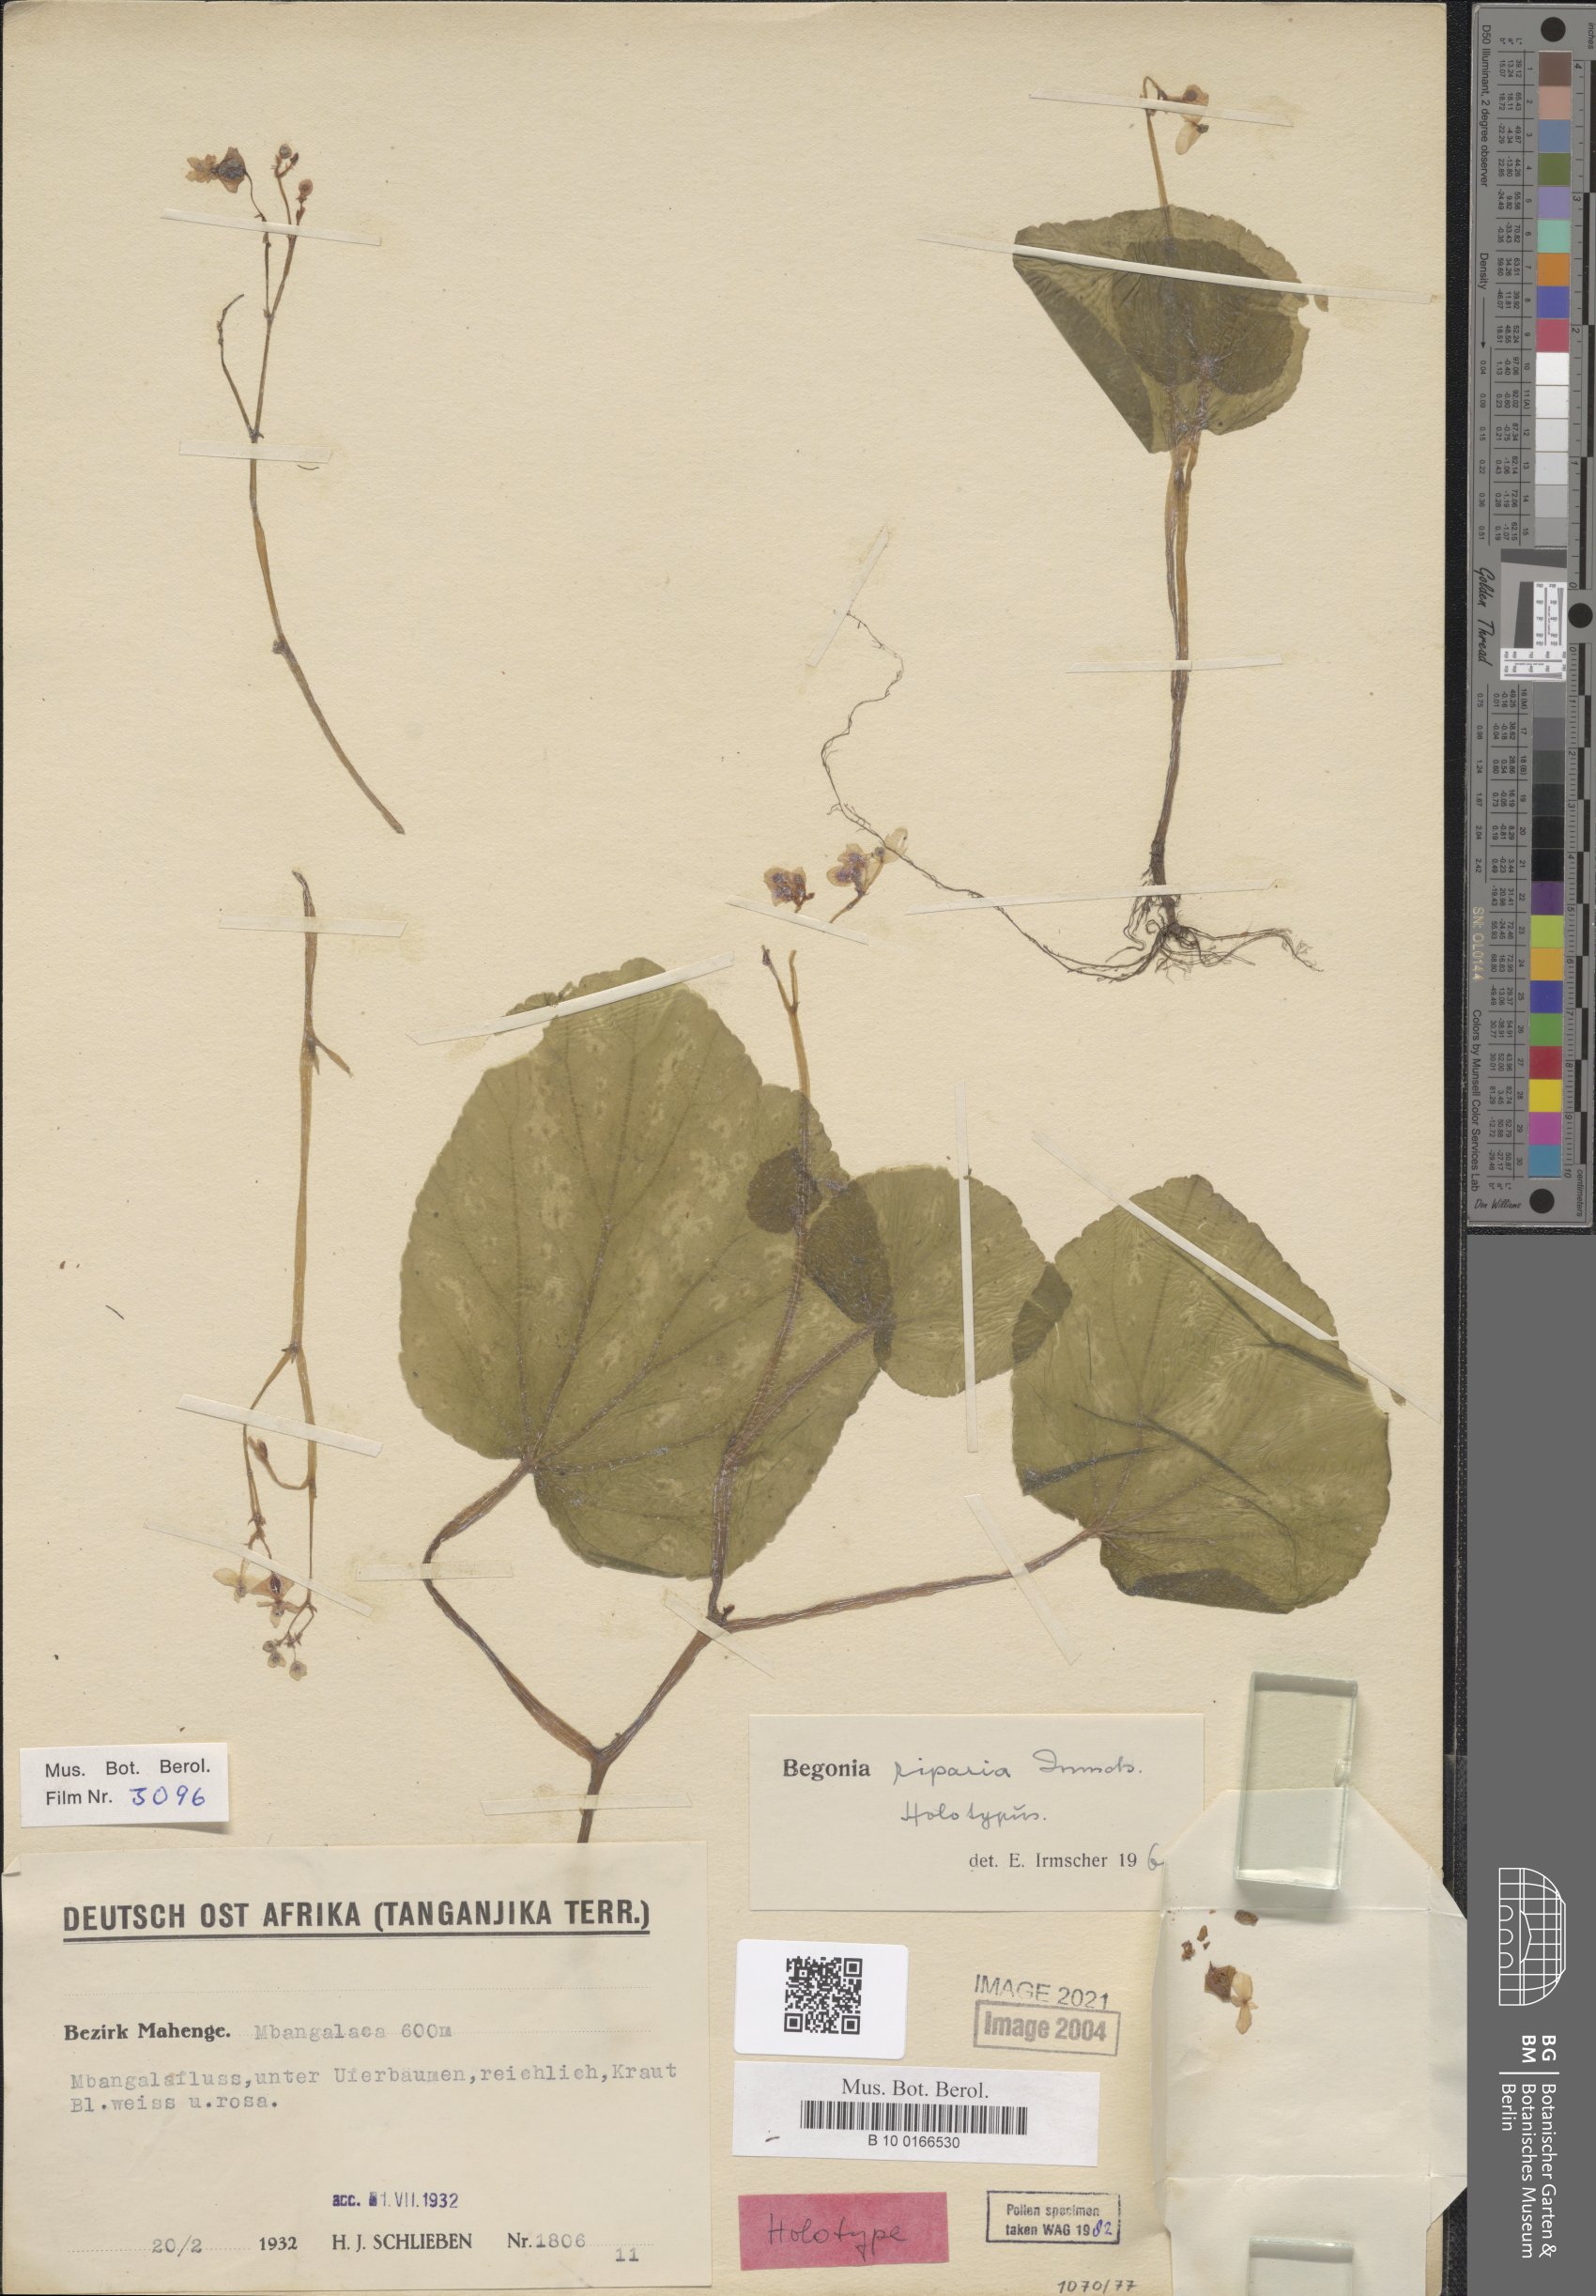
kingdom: Plantae
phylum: Tracheophyta
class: Magnoliopsida
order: Cucurbitales
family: Begoniaceae
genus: Begonia
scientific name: Begonia riparia
